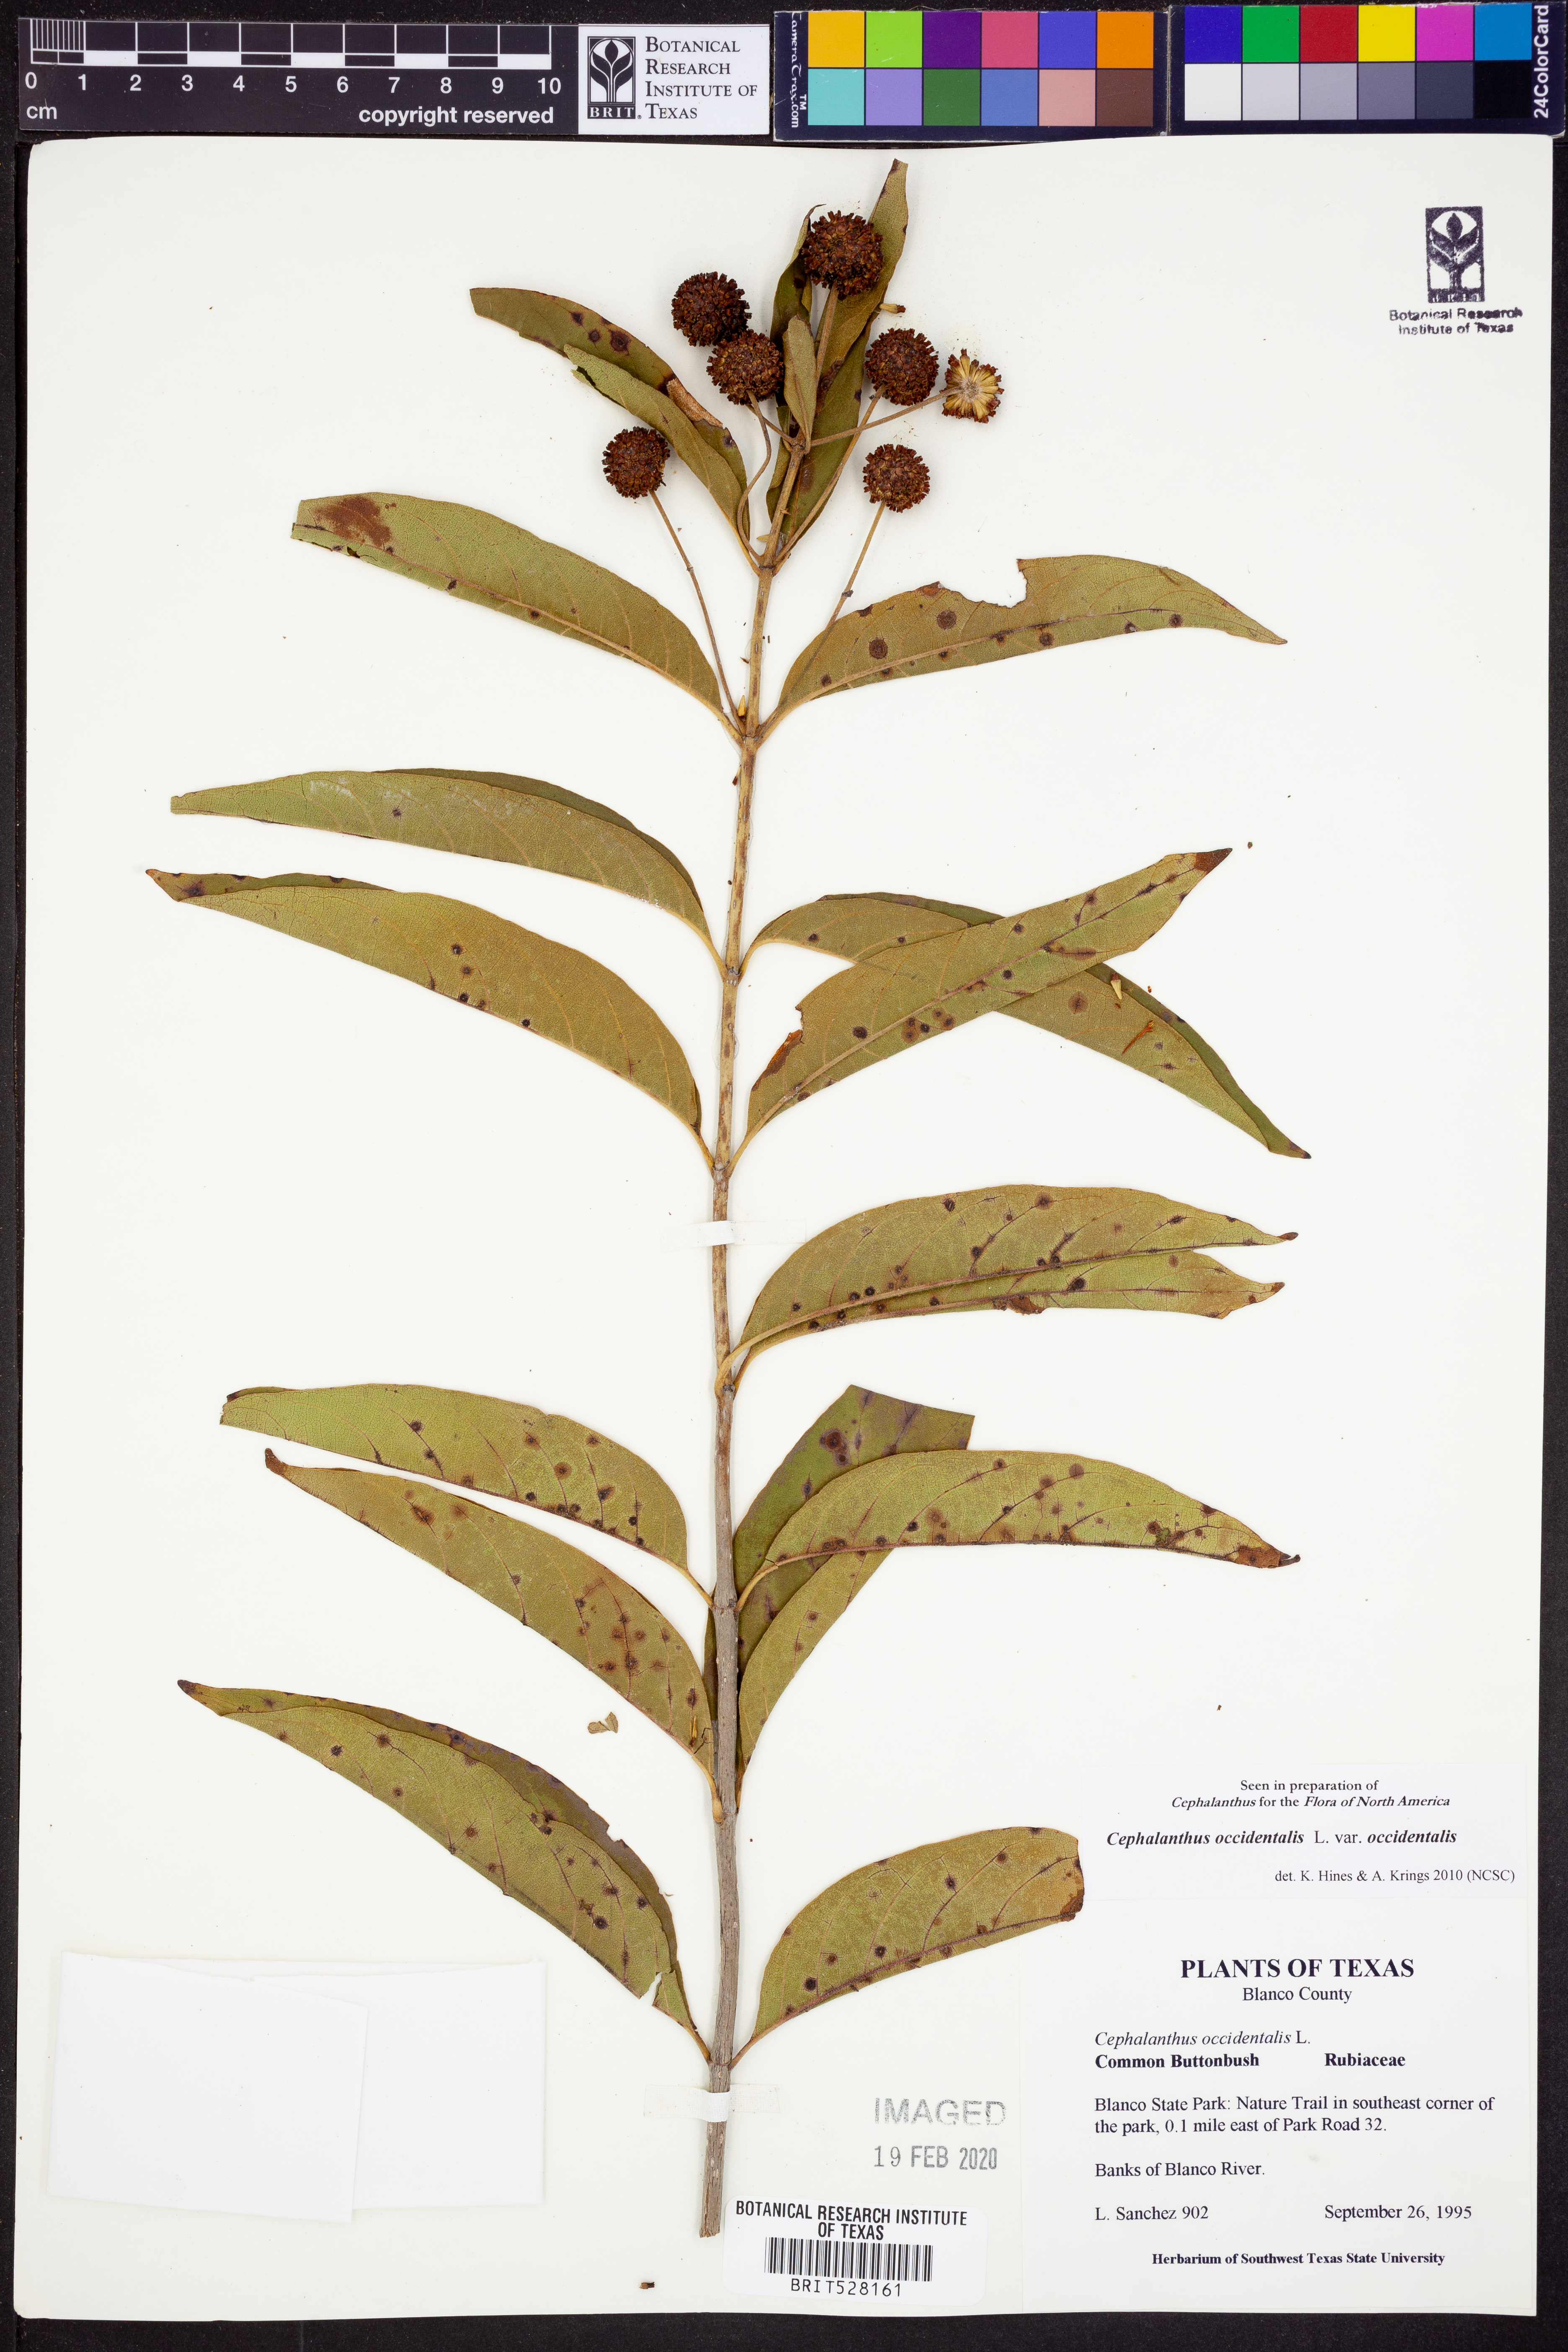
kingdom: Plantae
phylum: Tracheophyta
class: Magnoliopsida
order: Gentianales
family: Rubiaceae
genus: Cephalanthus
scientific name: Cephalanthus occidentalis
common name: Button-willow
